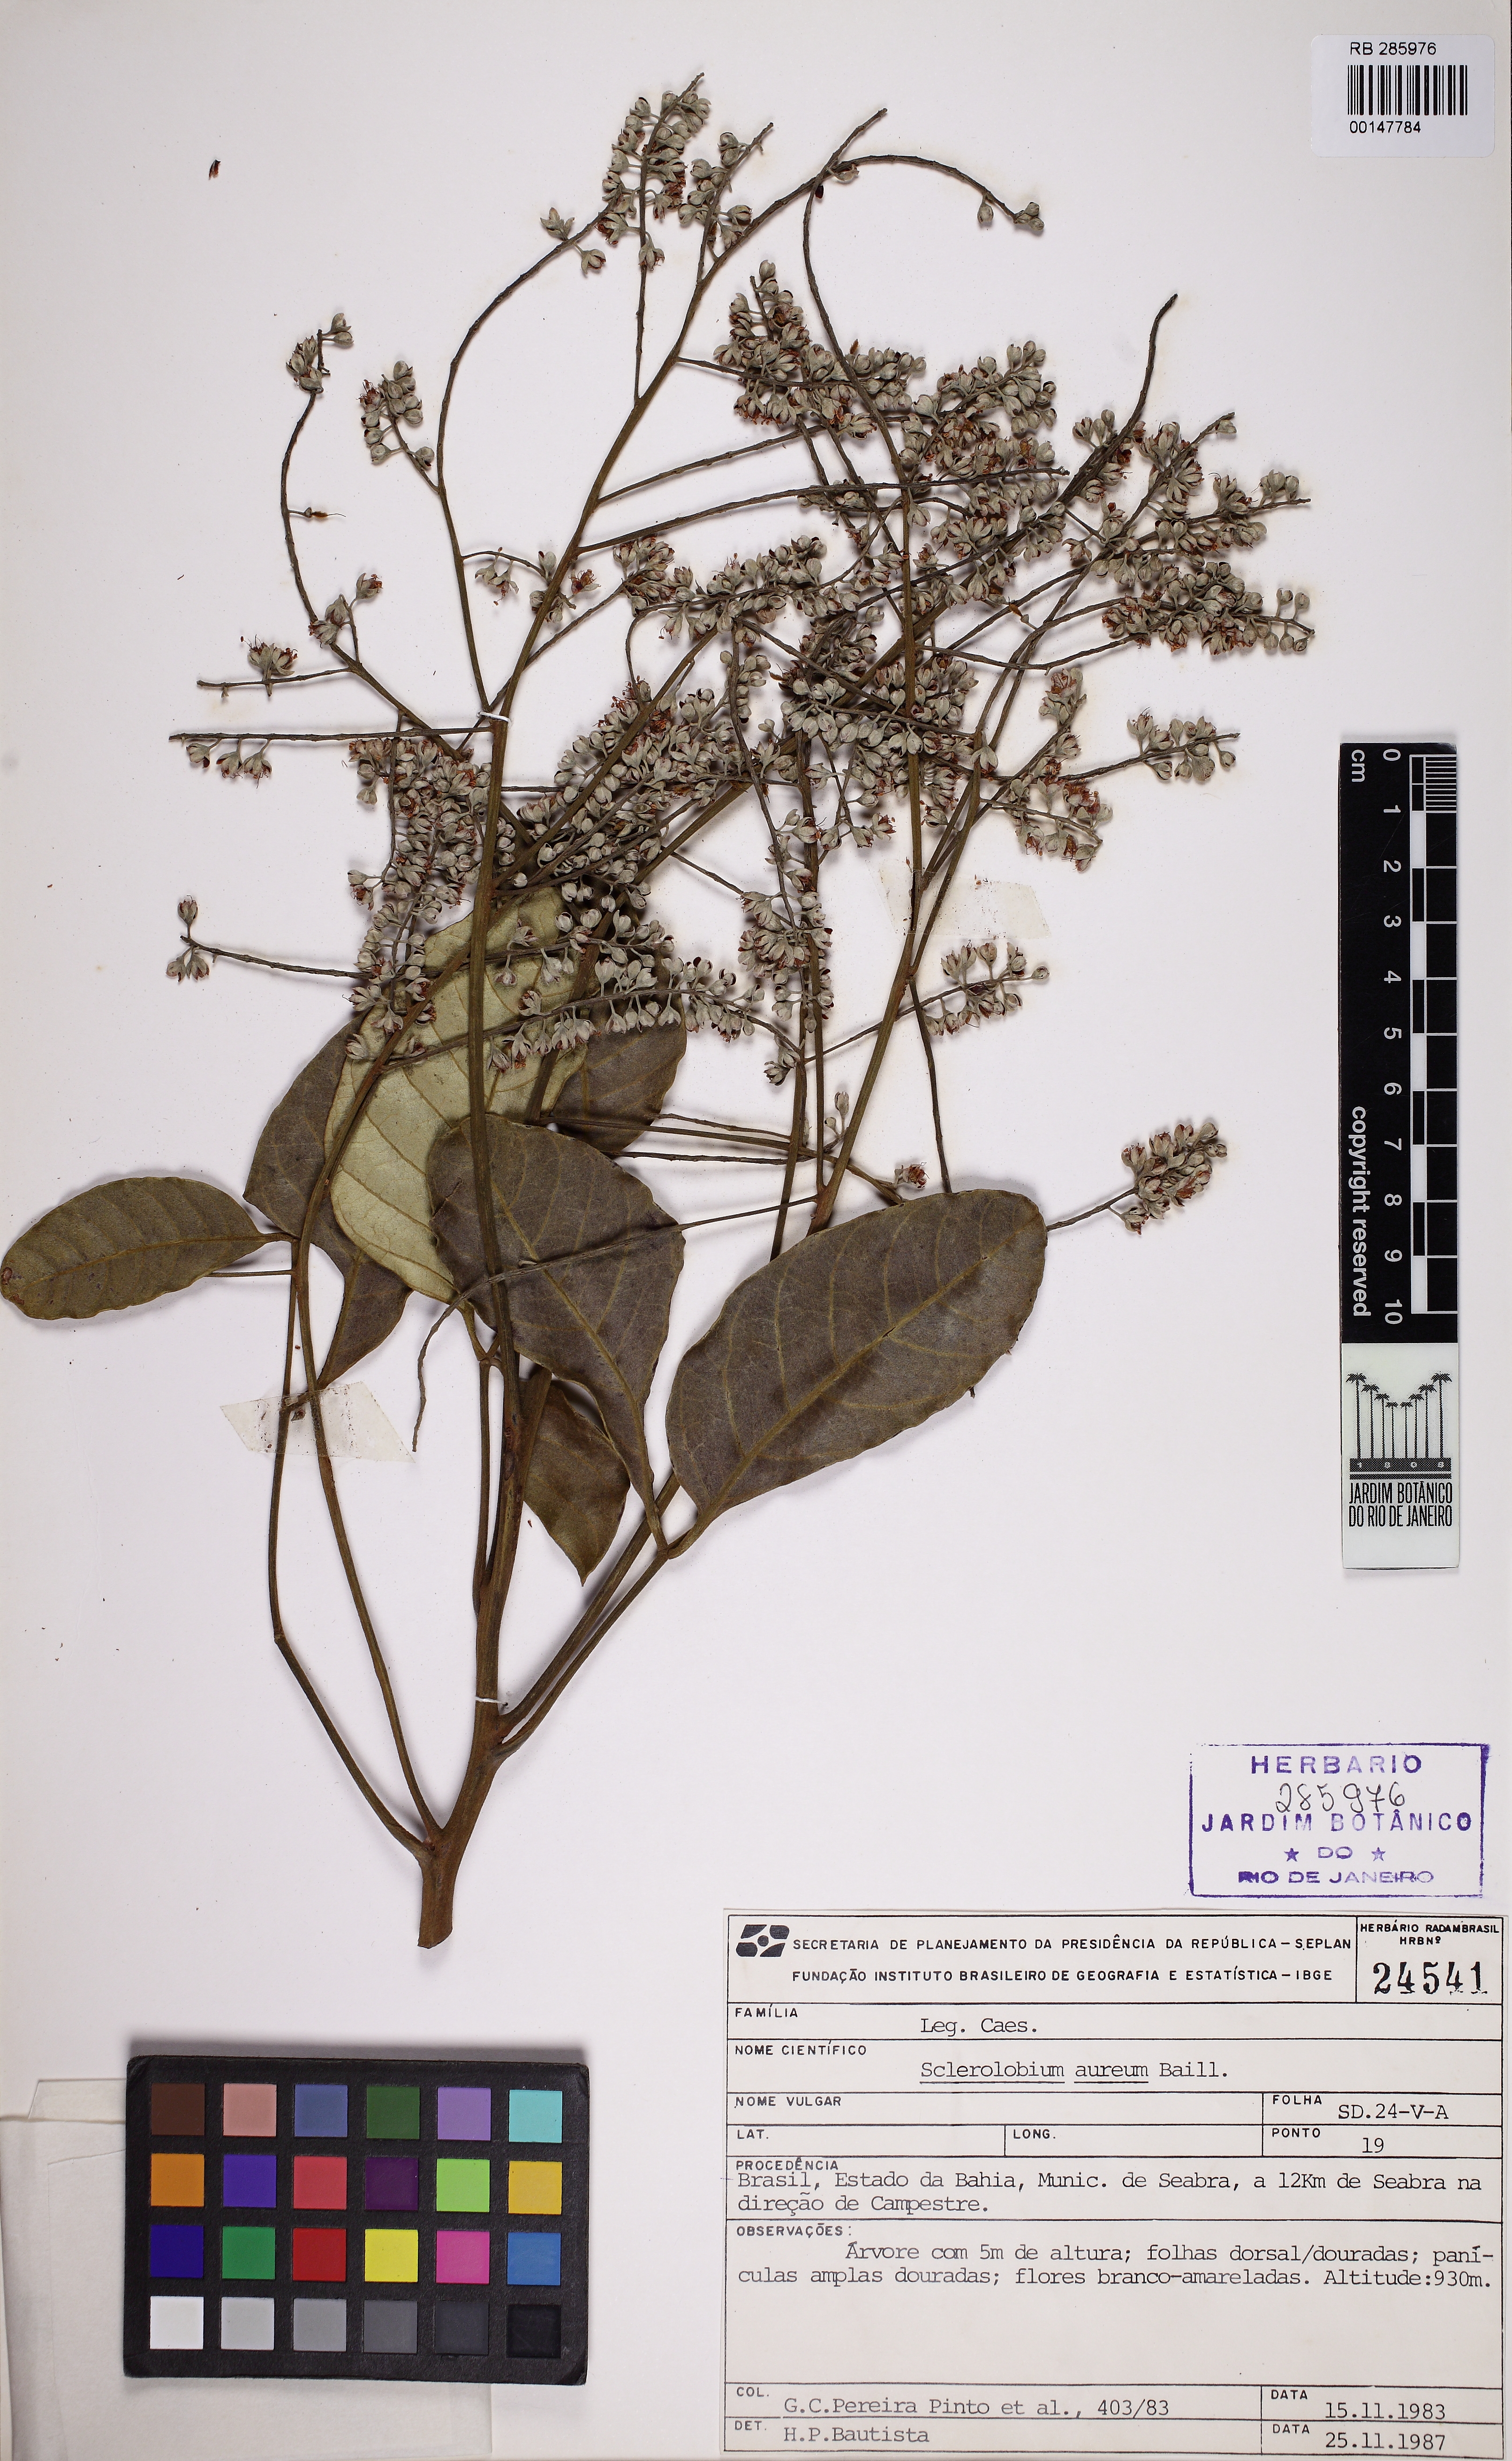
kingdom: Plantae
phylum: Tracheophyta
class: Magnoliopsida
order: Fabales
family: Fabaceae
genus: Tachigali
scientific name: Tachigali vulgaris
